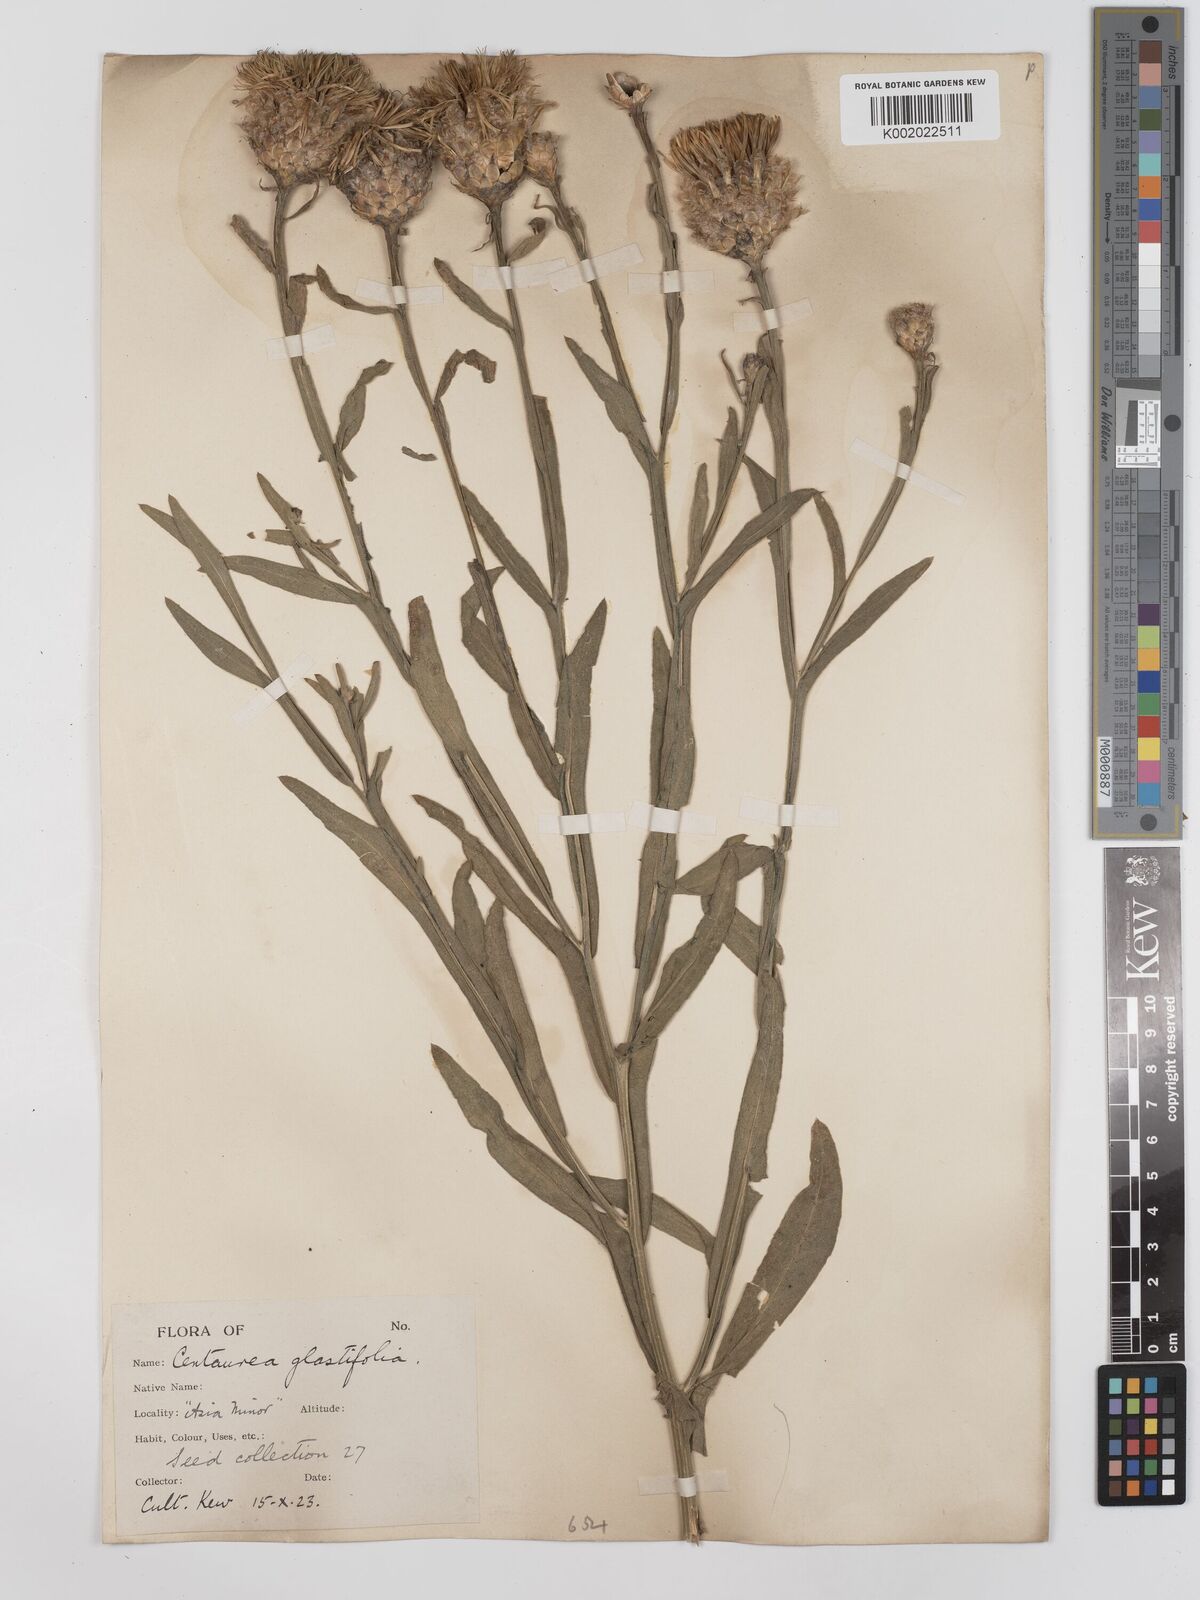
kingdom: Plantae
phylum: Tracheophyta
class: Magnoliopsida
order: Asterales
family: Asteraceae
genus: Centaurea
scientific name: Centaurea glastifolia
